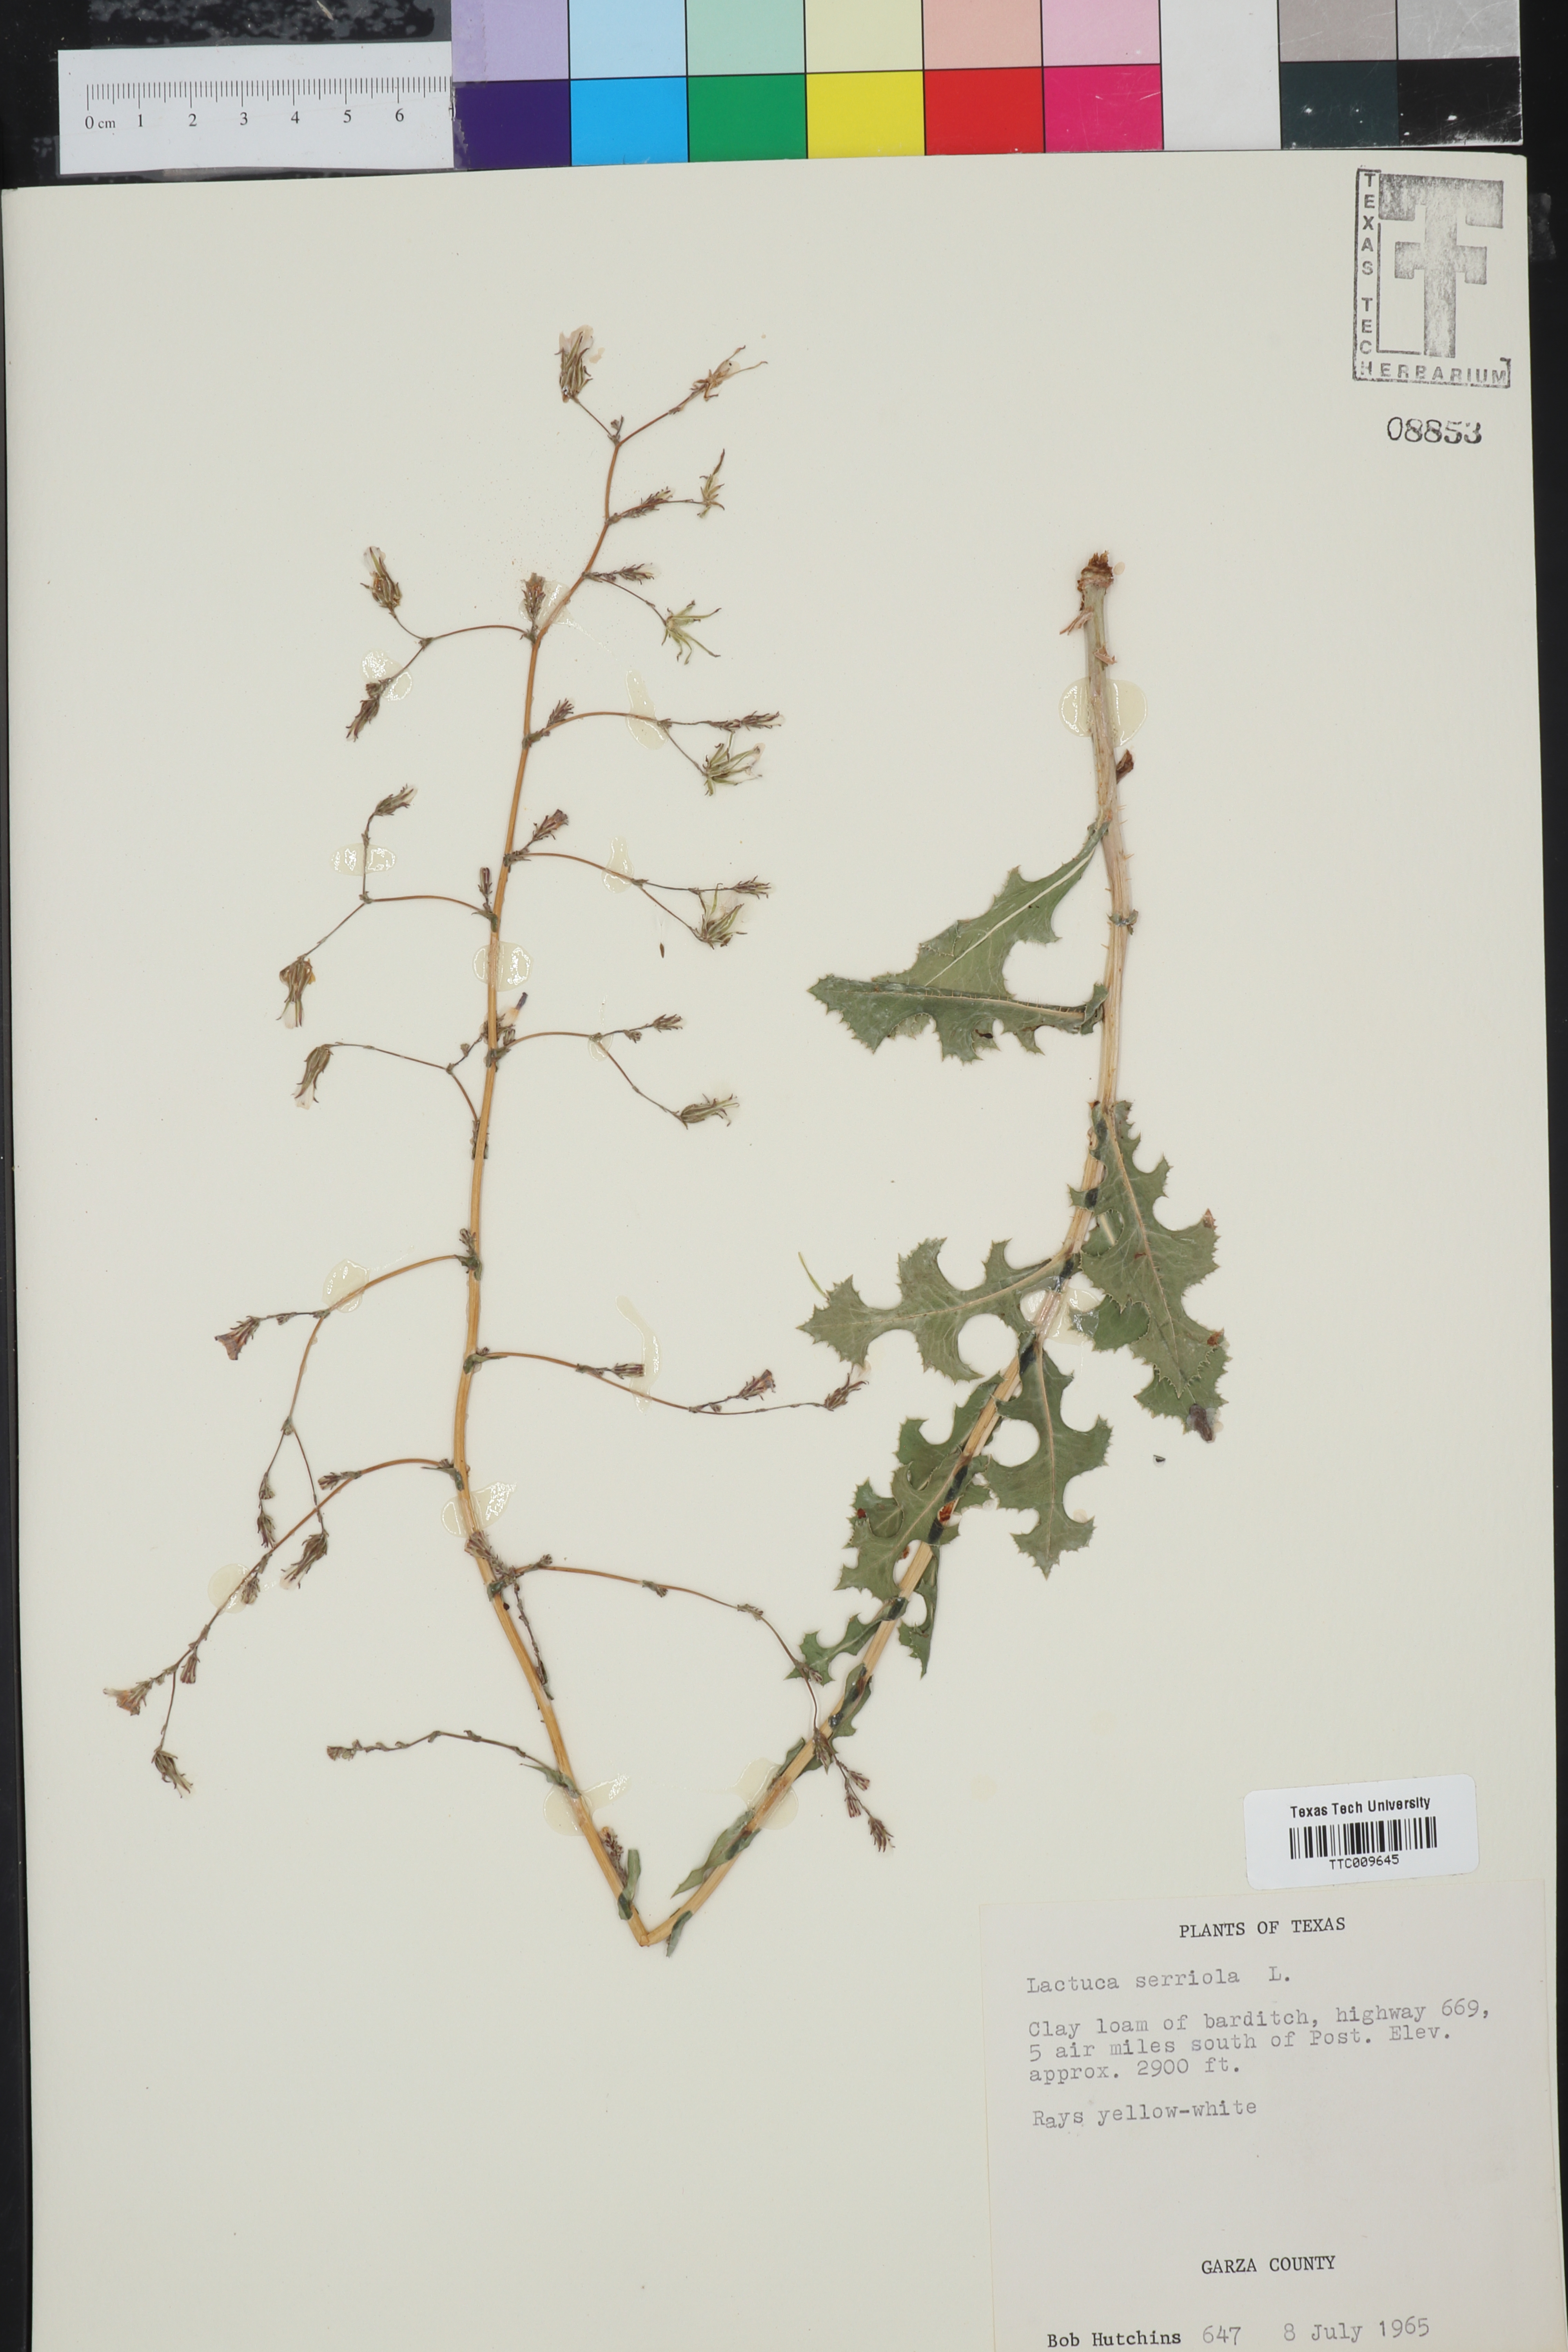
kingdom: Plantae
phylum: Tracheophyta
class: Magnoliopsida
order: Asterales
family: Asteraceae
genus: Lactuca
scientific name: Lactuca serriola
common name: Prickly lettuce
